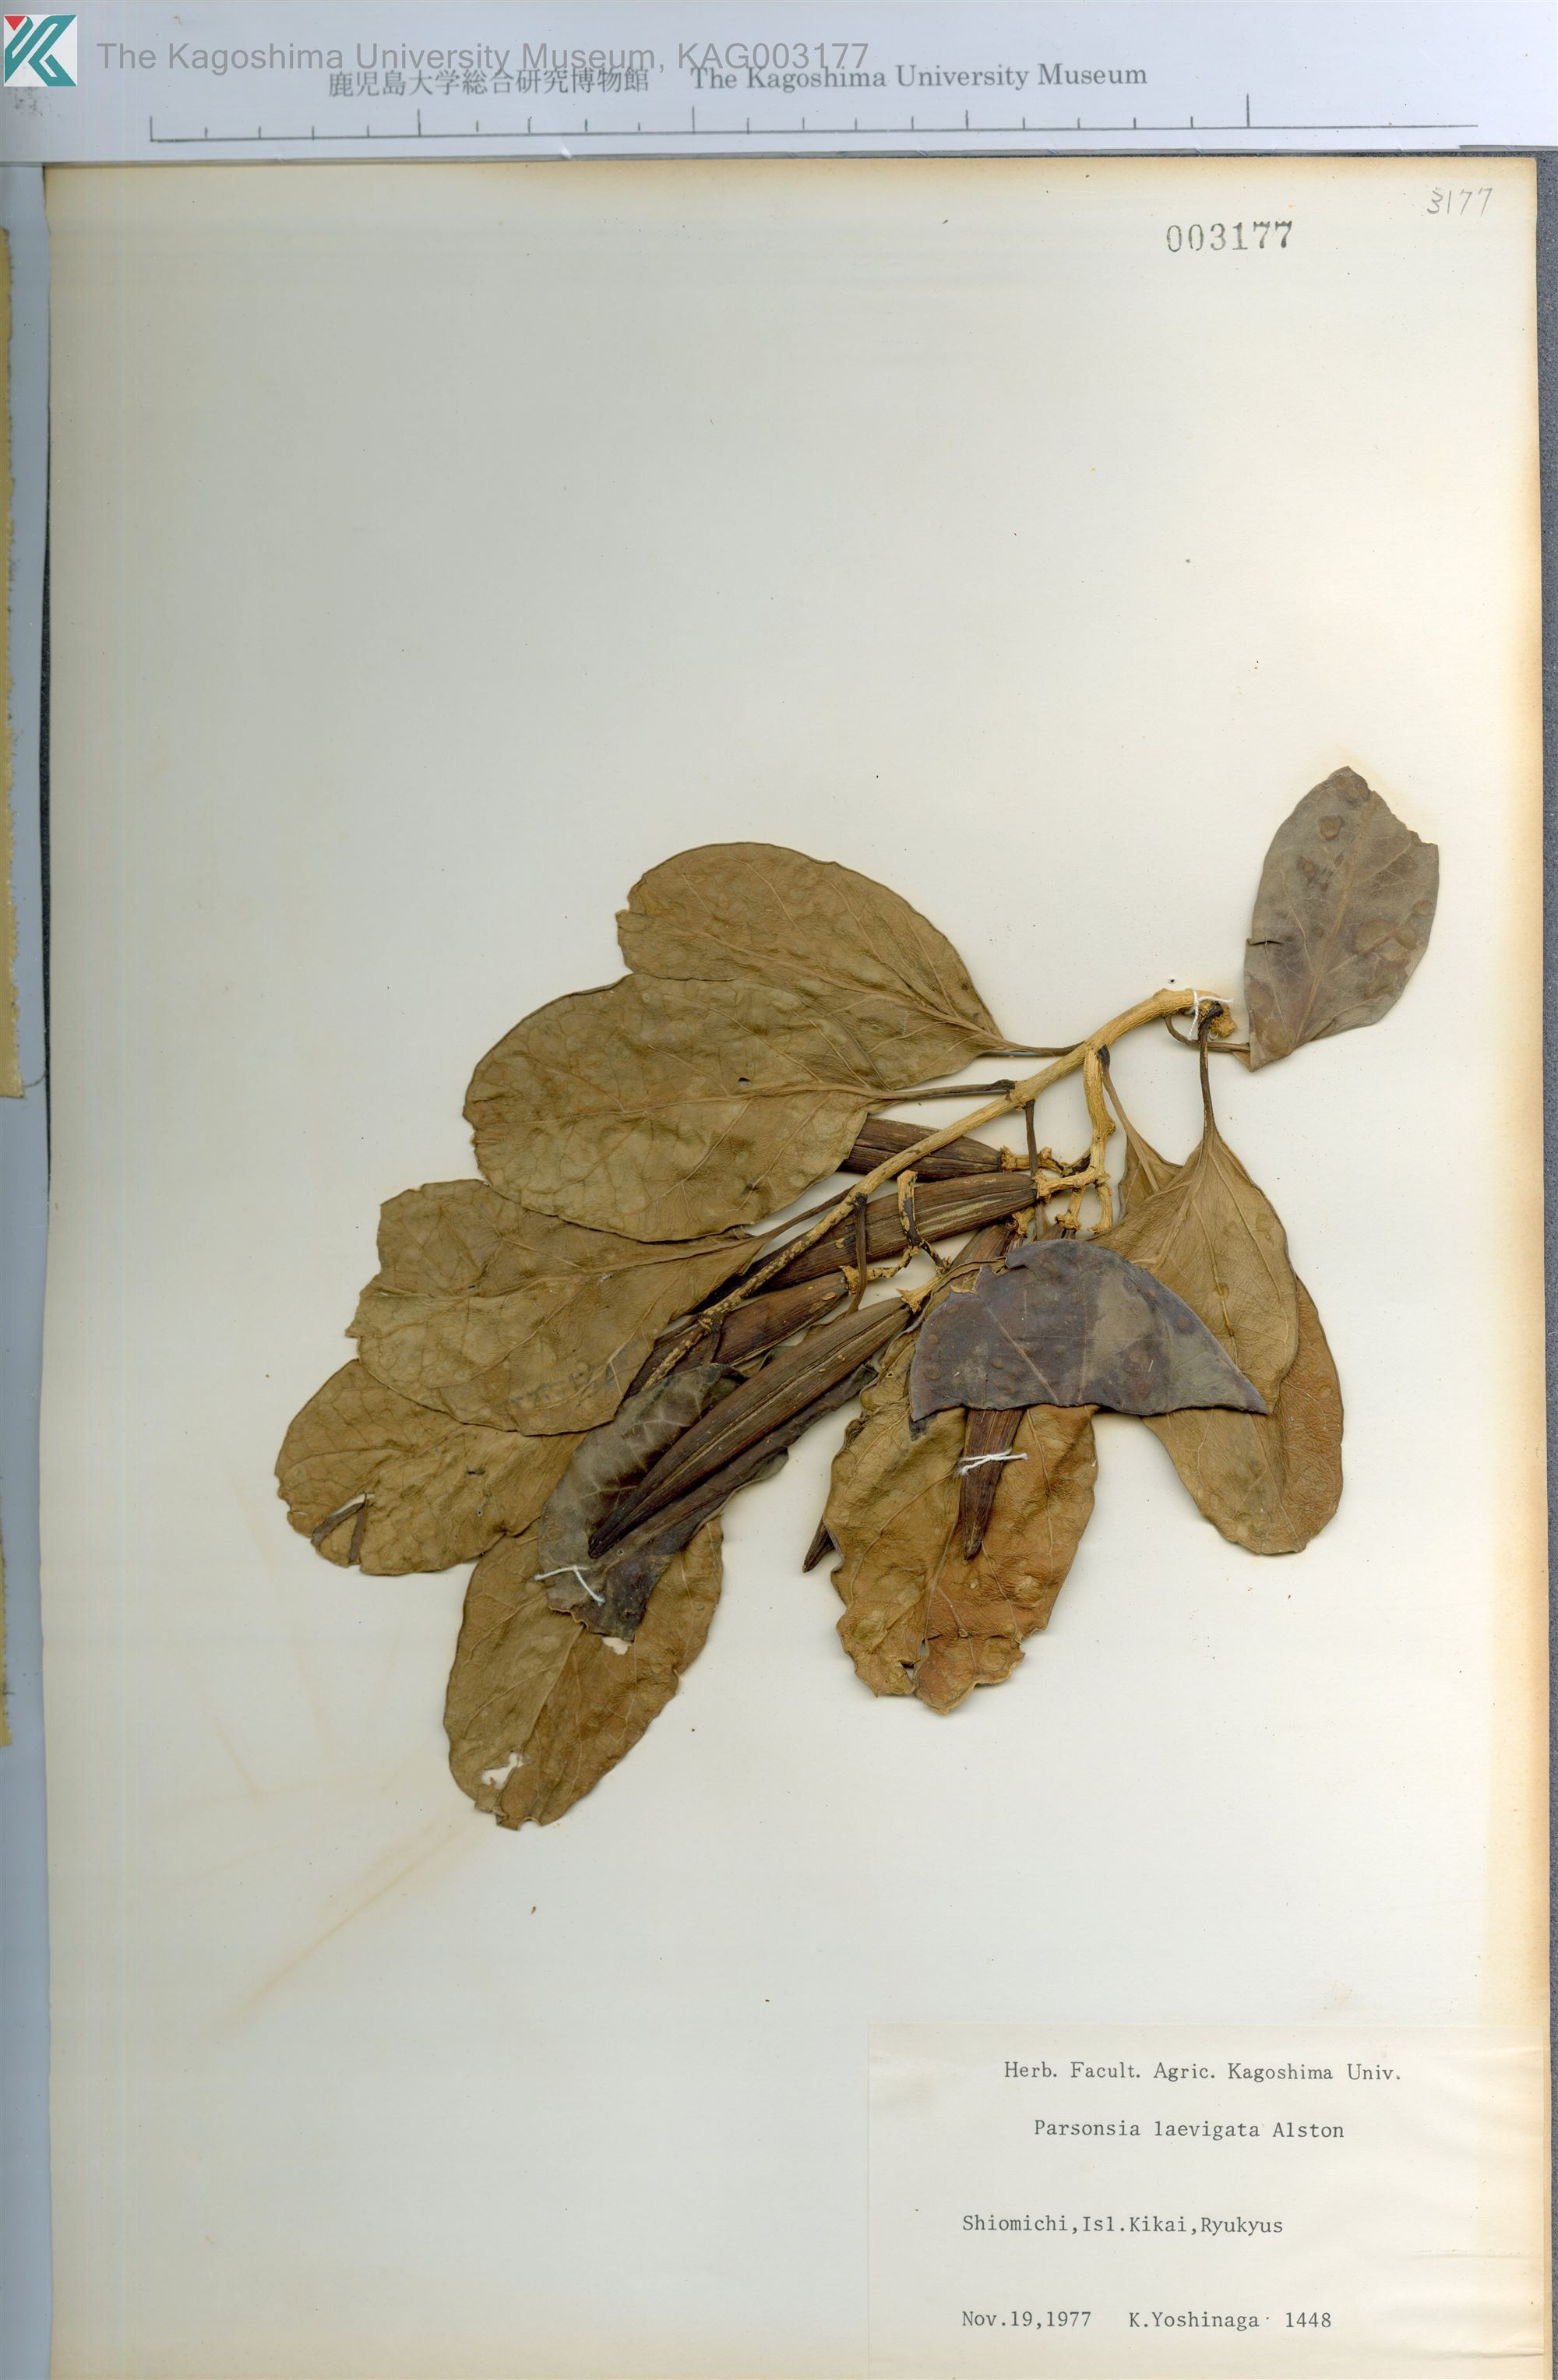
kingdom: Plantae
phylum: Tracheophyta
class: Magnoliopsida
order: Gentianales
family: Apocynaceae
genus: Parsonsia
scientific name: Parsonsia alboflavescens
